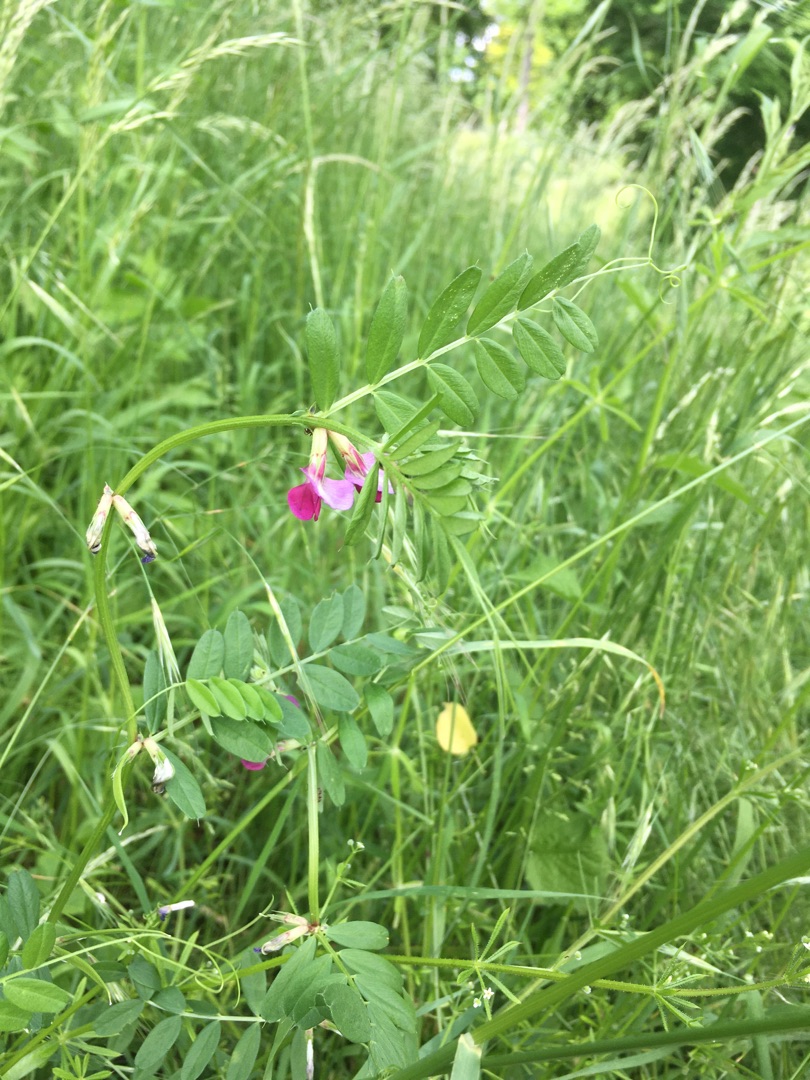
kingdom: Plantae
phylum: Tracheophyta
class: Magnoliopsida
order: Fabales
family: Fabaceae
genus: Vicia
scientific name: Vicia sativa
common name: Foder-vikke
